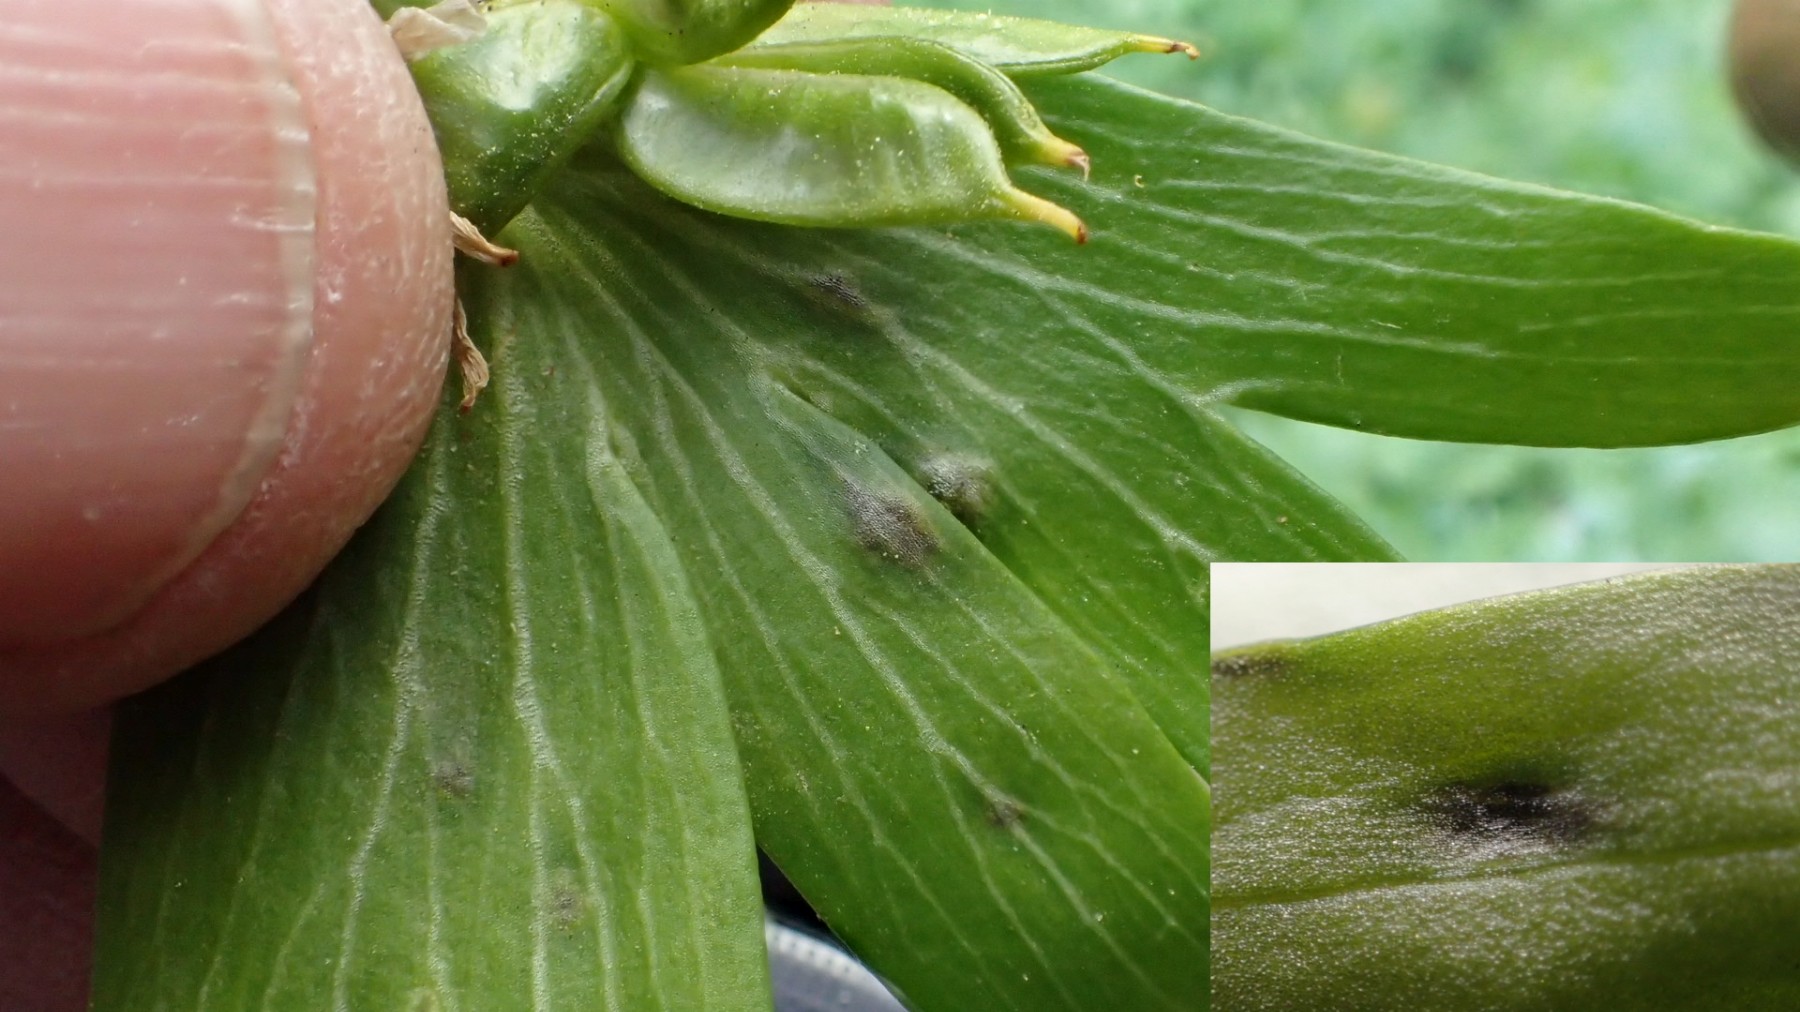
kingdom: Fungi
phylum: Basidiomycota
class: Ustilaginomycetes
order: Urocystidales
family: Urocystidaceae
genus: Urocystis
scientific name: Urocystis eranthidis
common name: erantis-brand
